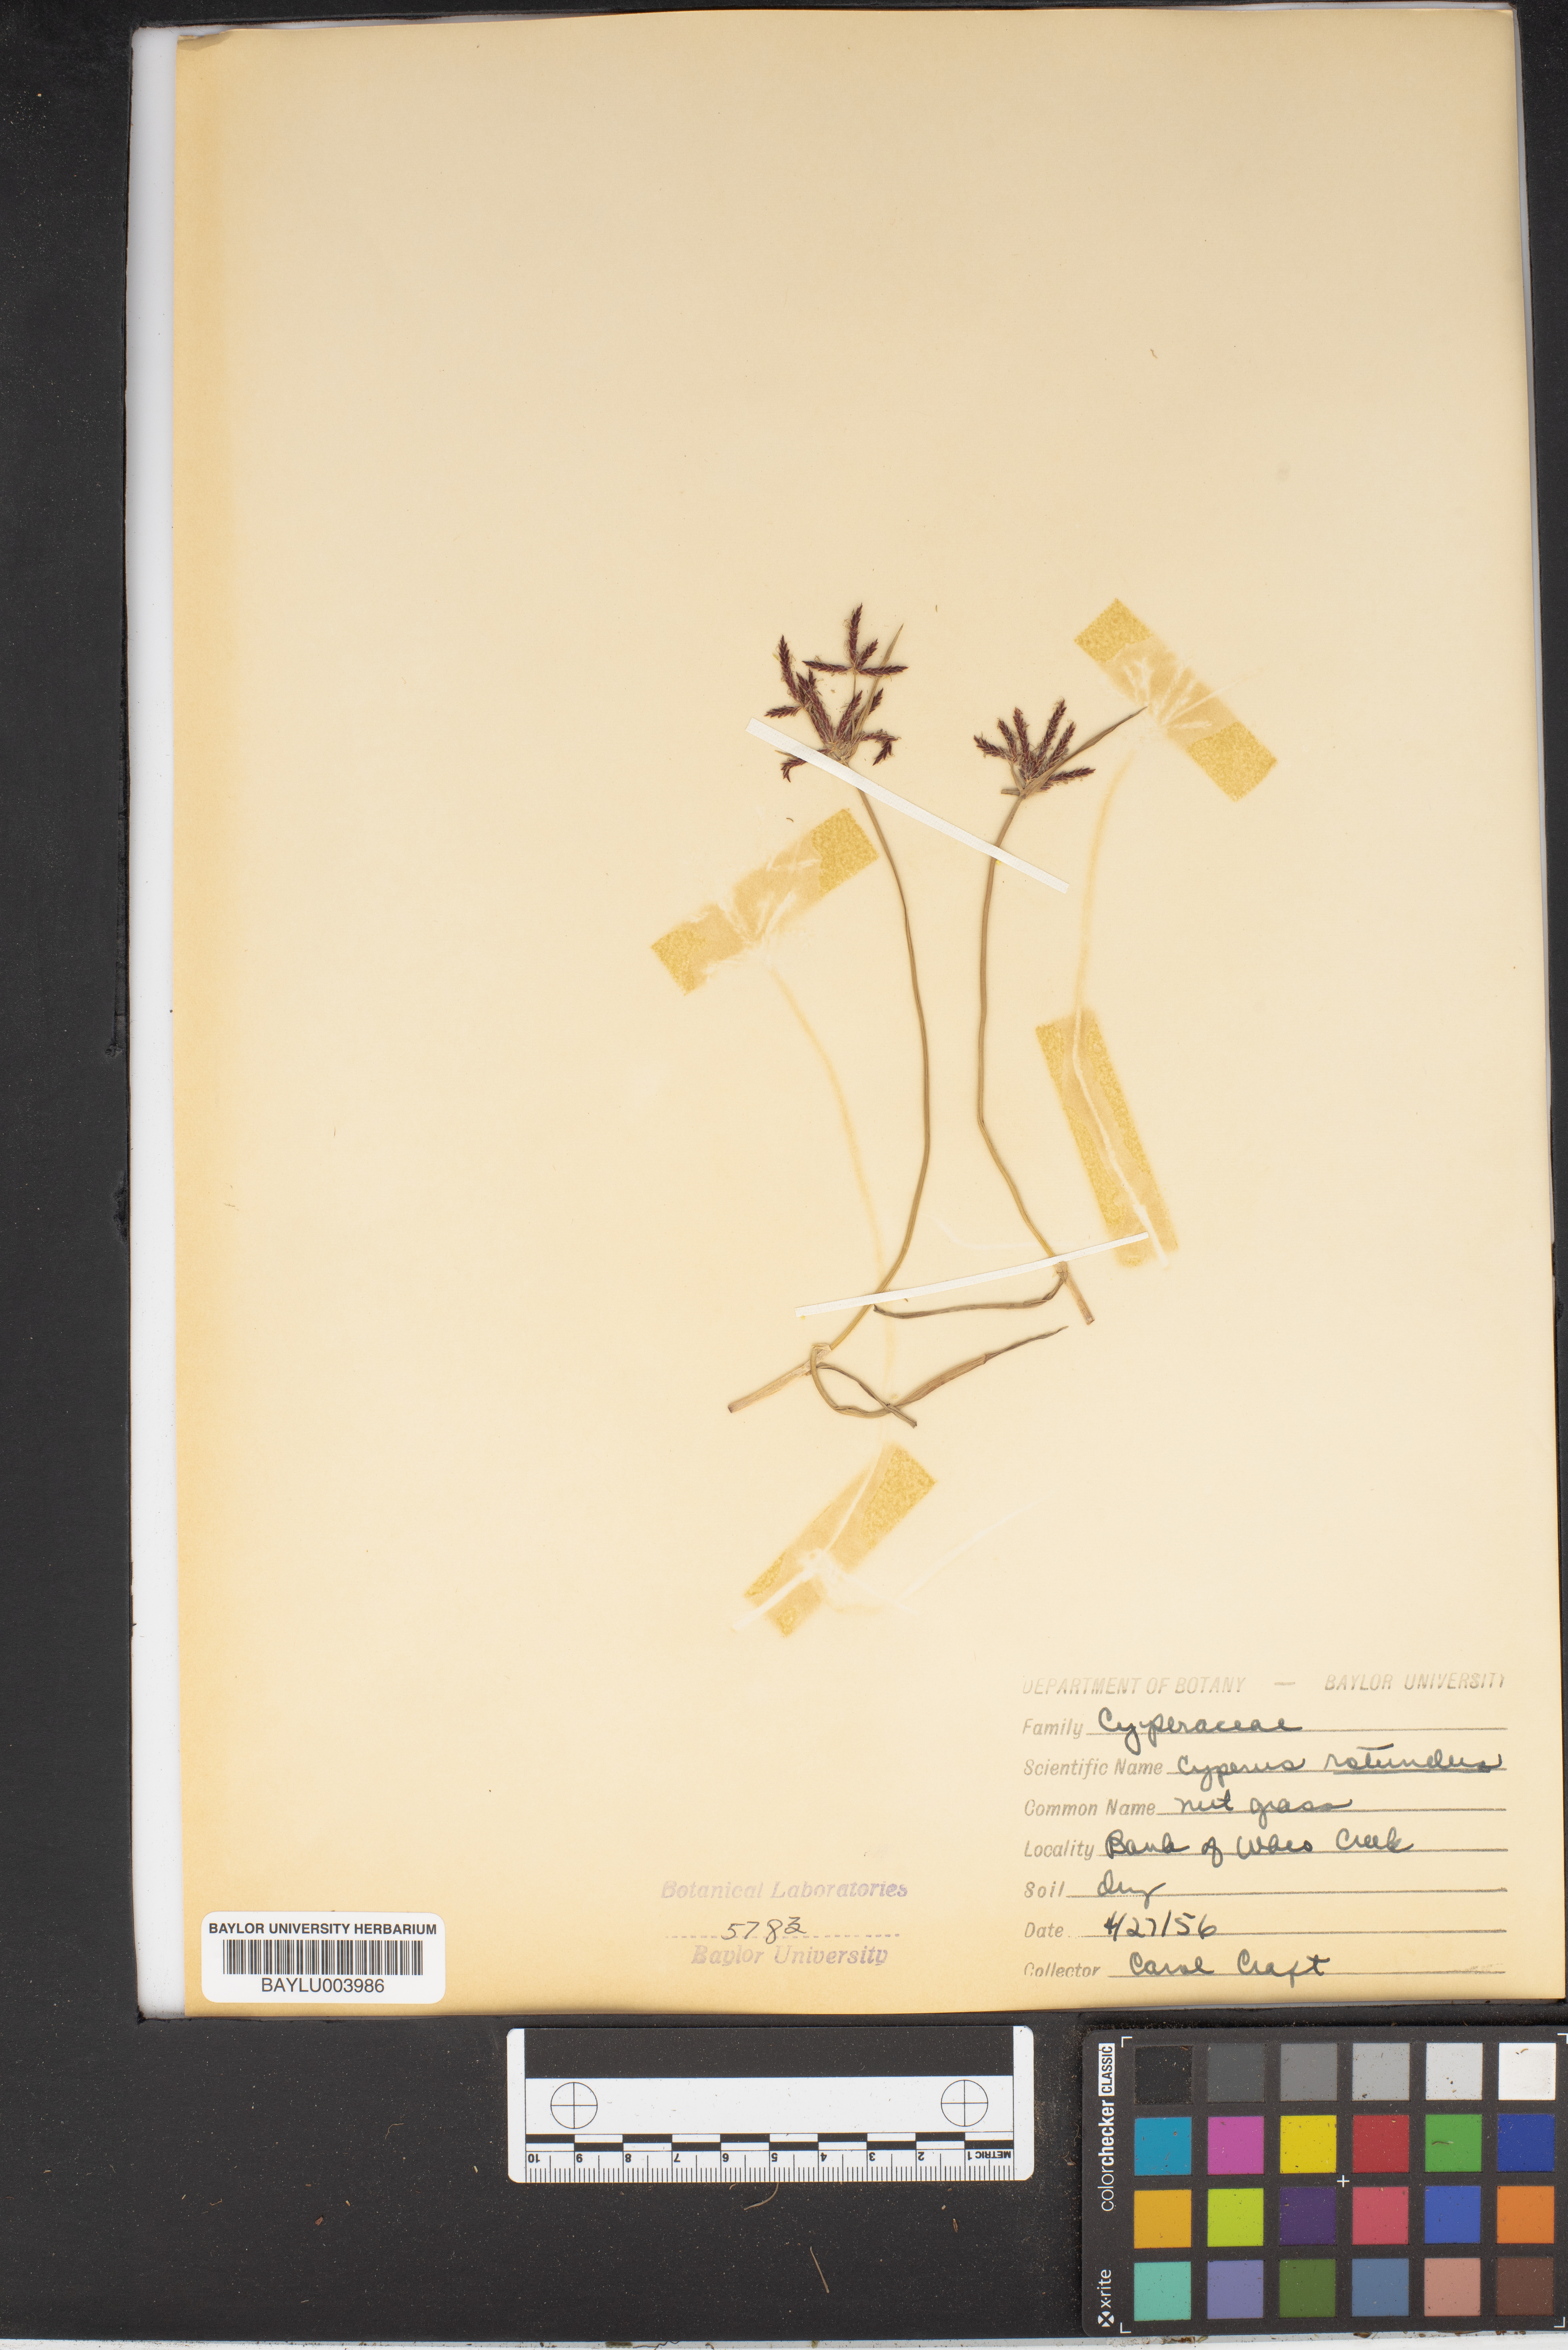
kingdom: Plantae
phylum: Tracheophyta
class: Liliopsida
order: Poales
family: Cyperaceae
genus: Cyperus
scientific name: Cyperus miliifolius
